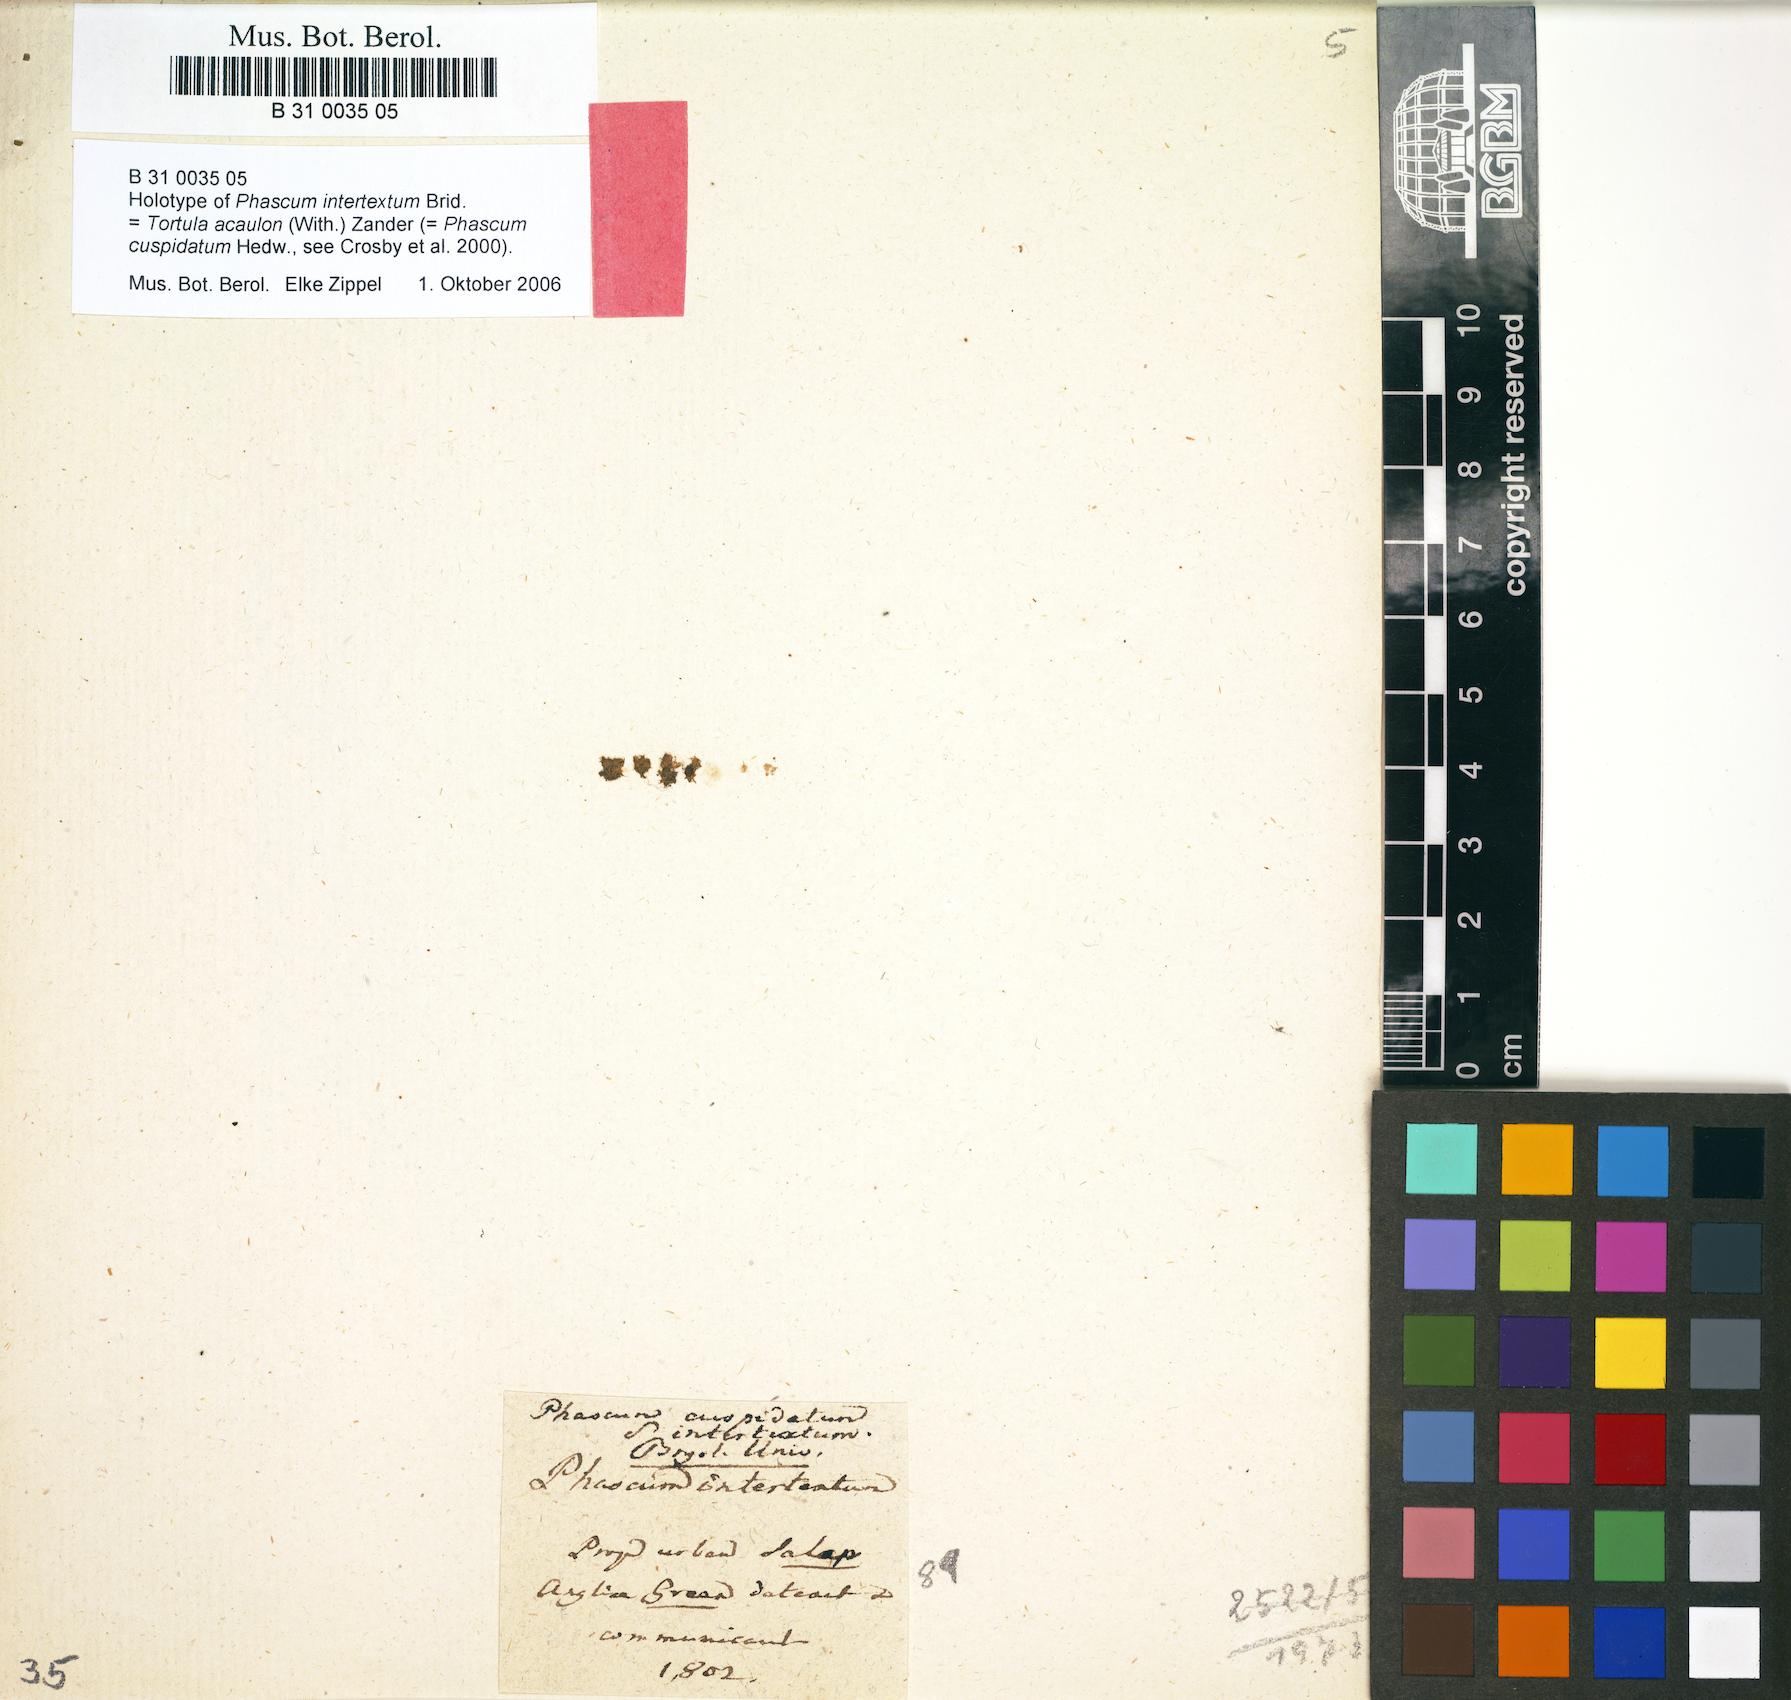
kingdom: Plantae
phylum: Bryophyta
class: Bryopsida
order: Pottiales
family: Pottiaceae
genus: Tortula
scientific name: Tortula acaulon
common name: Cuspidate earth moss
